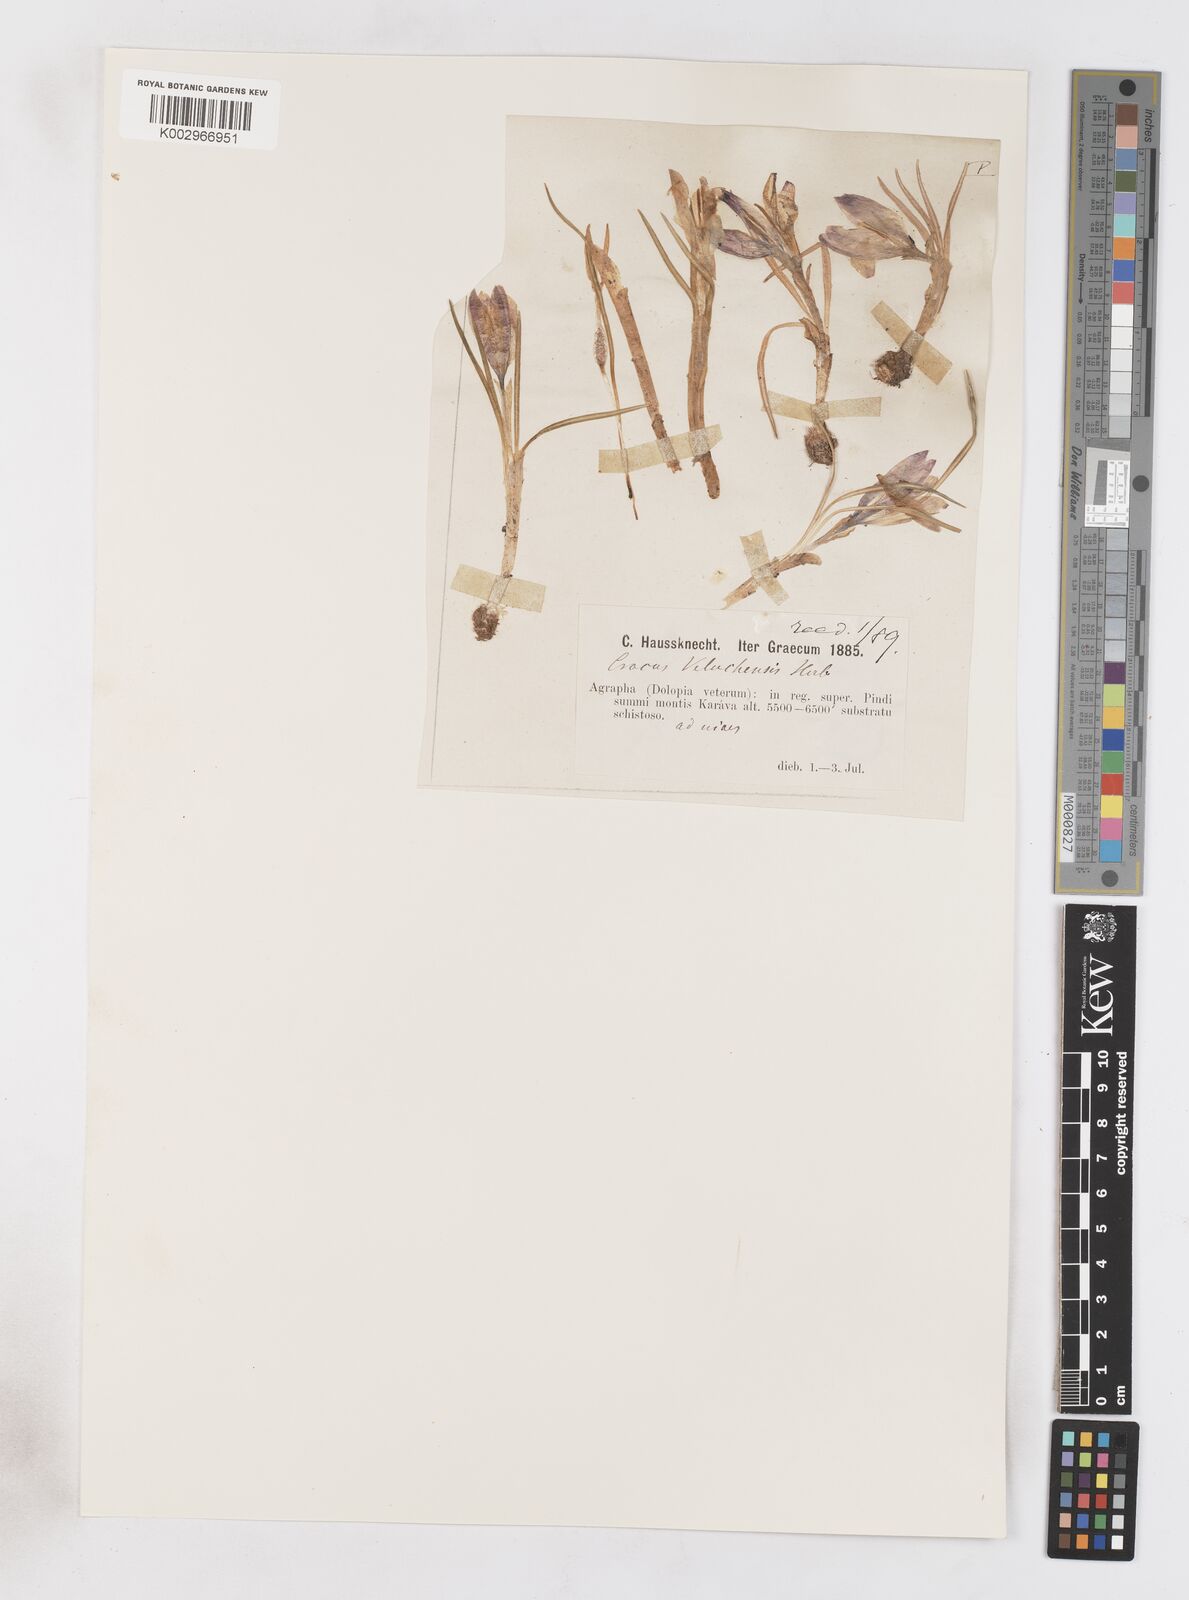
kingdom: Plantae
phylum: Tracheophyta
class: Liliopsida
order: Asparagales
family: Iridaceae
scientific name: Iridaceae
